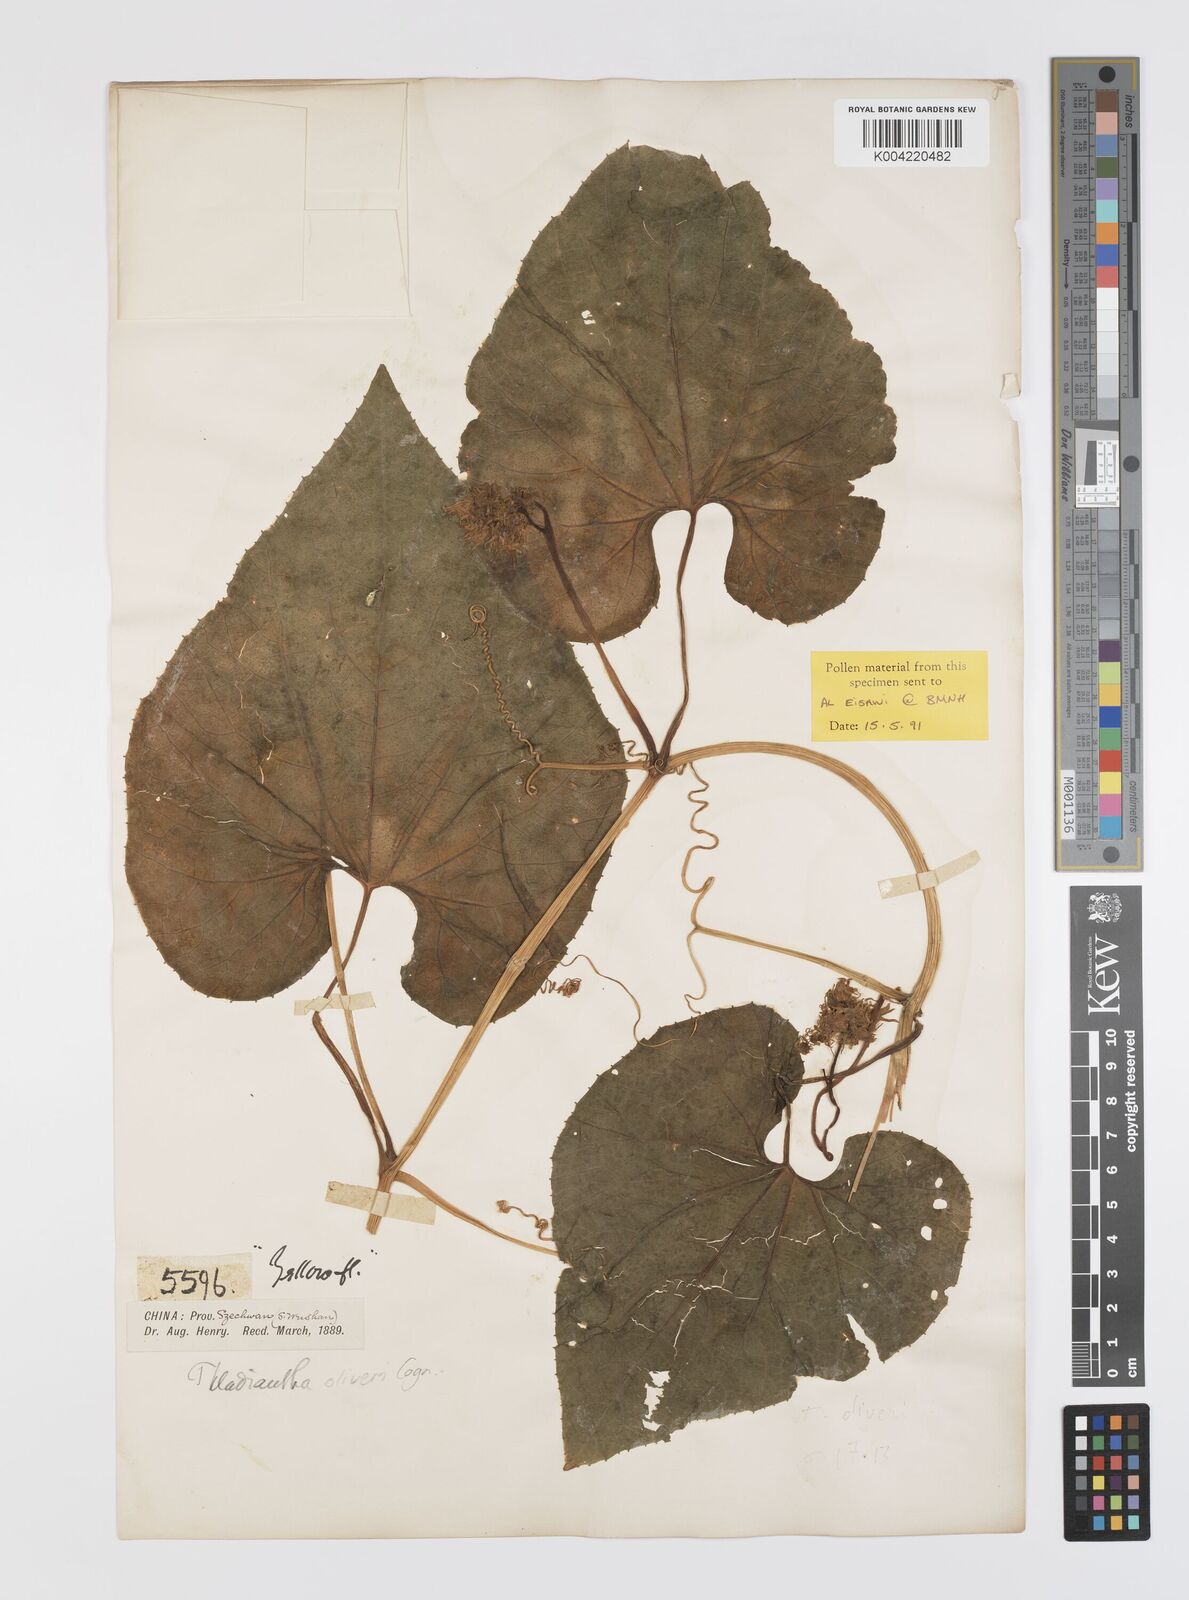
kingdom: Plantae
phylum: Tracheophyta
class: Magnoliopsida
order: Cucurbitales
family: Cucurbitaceae
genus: Thladiantha
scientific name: Thladiantha oliveri
